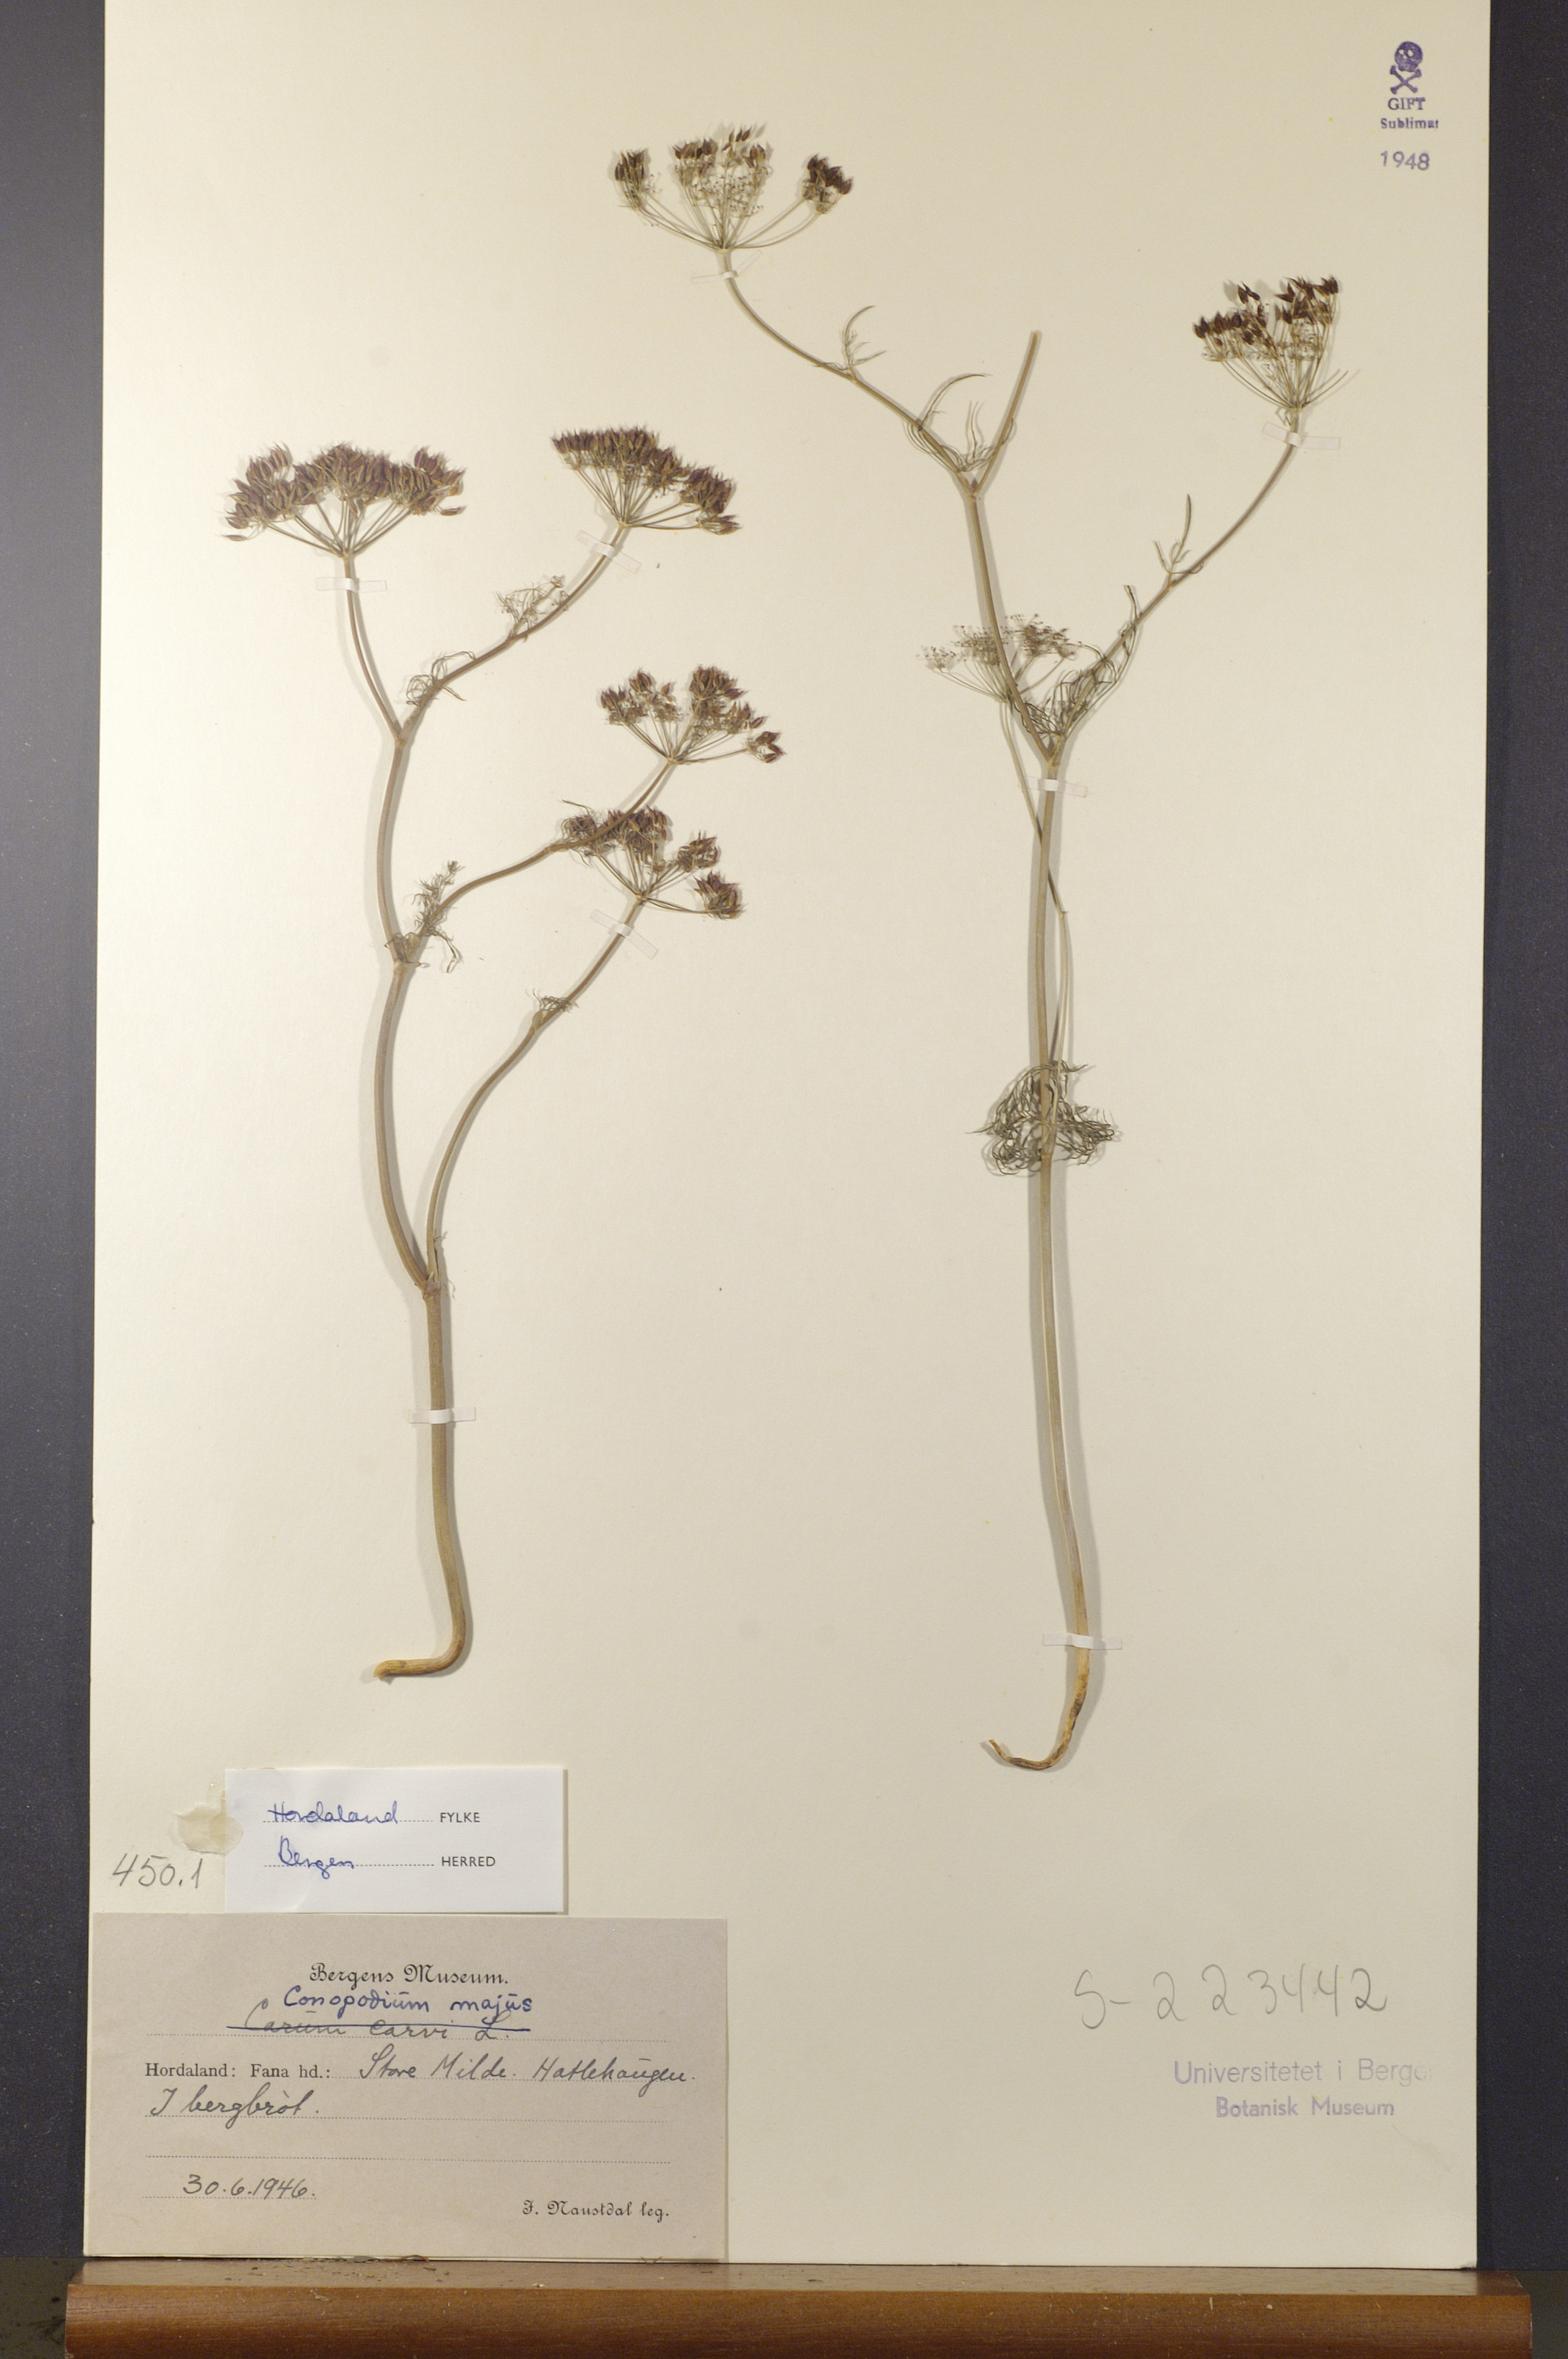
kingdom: Plantae
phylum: Tracheophyta
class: Magnoliopsida
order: Apiales
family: Apiaceae
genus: Conopodium
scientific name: Conopodium majus
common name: Pignut
